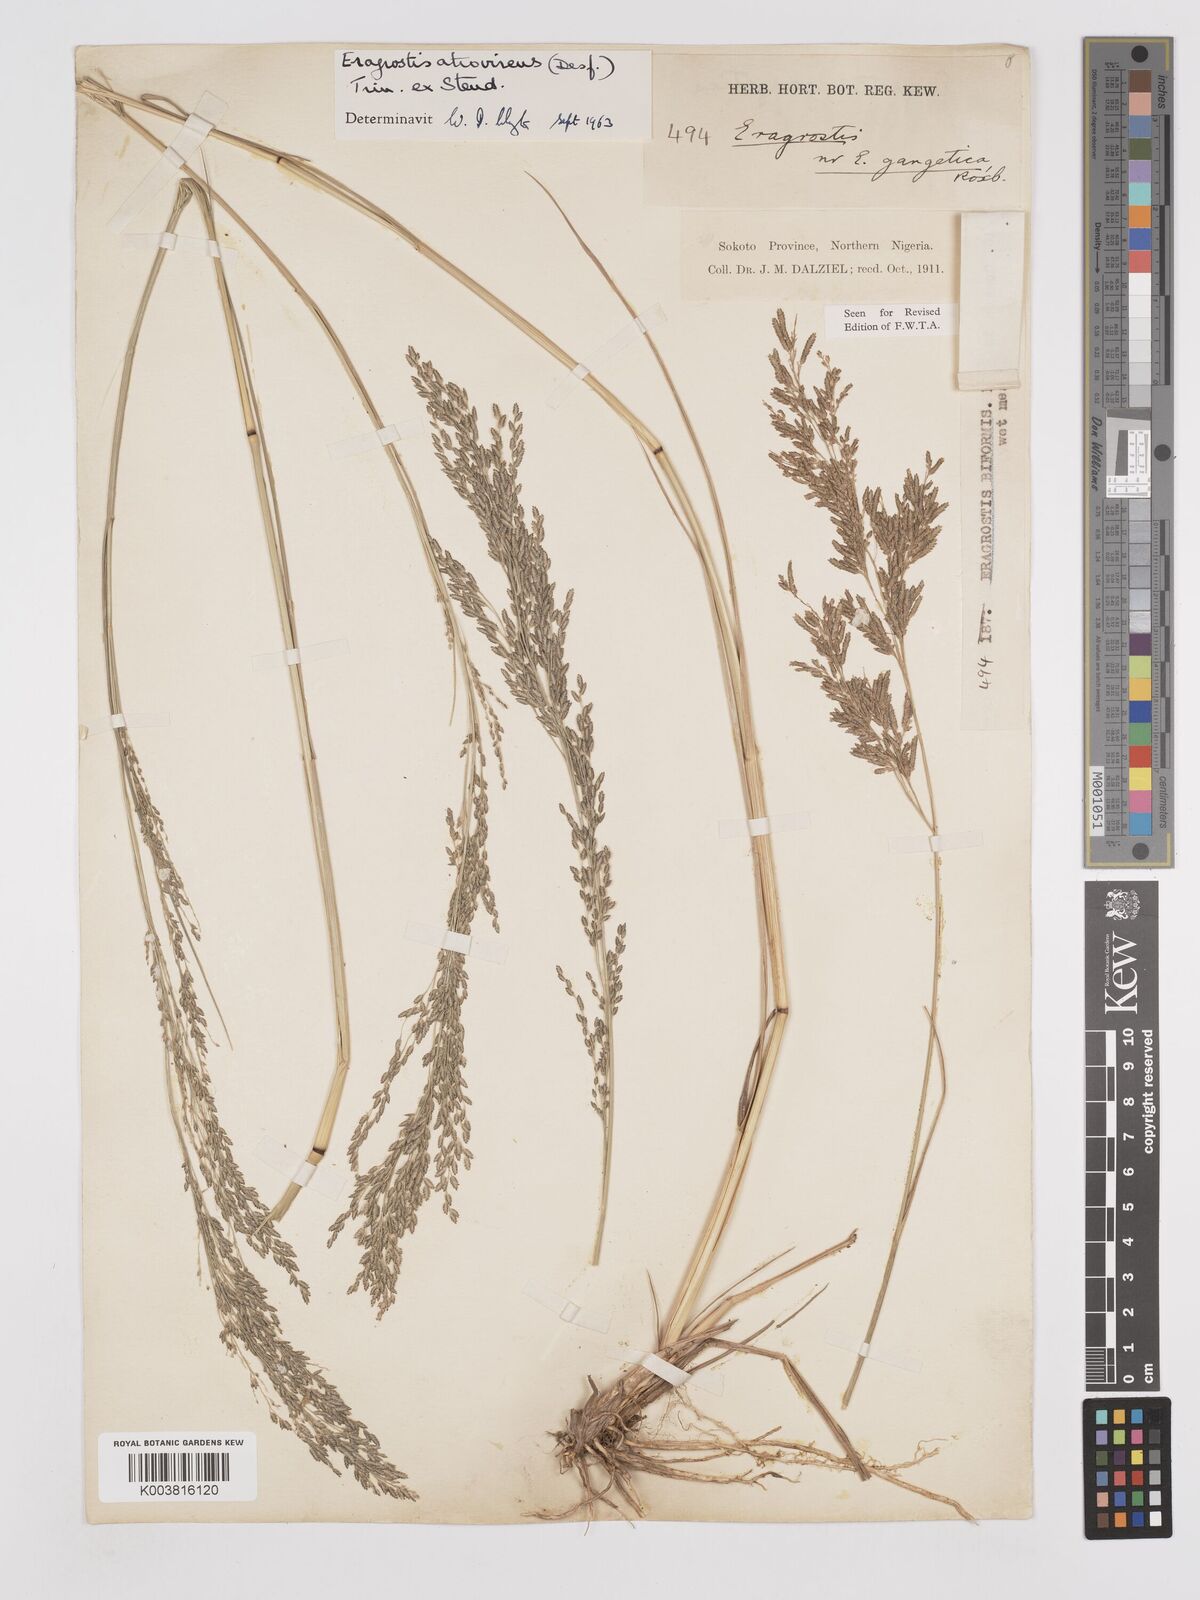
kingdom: Plantae
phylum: Tracheophyta
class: Liliopsida
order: Poales
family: Poaceae
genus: Eragrostis
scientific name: Eragrostis atrovirens
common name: Thalia lovegrass
